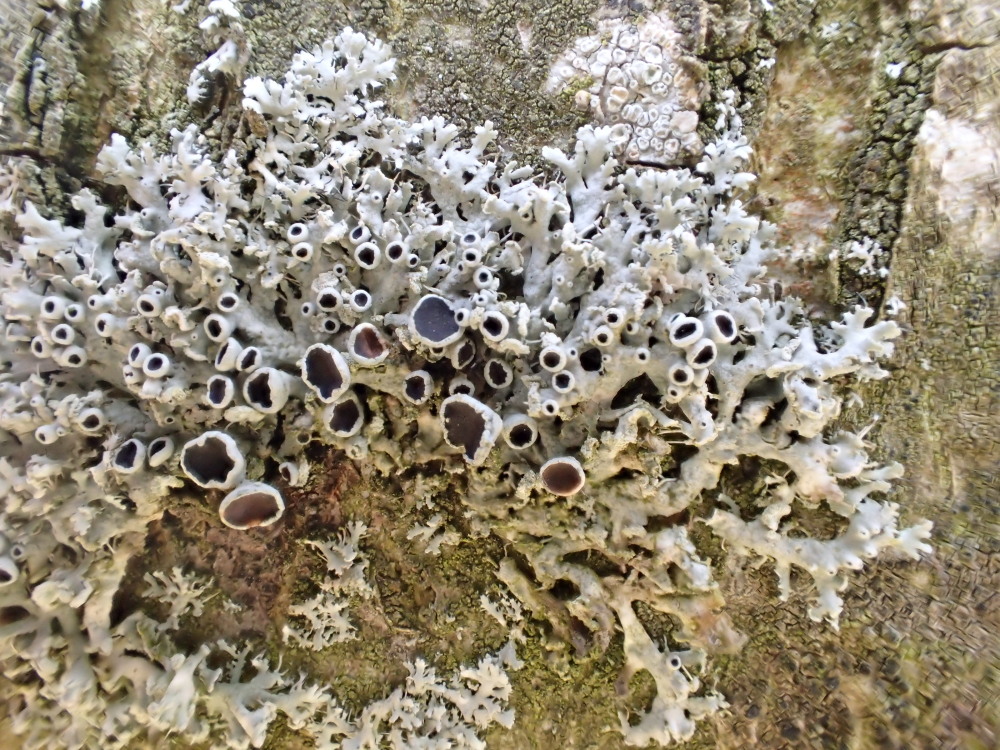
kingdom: Fungi
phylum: Ascomycota
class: Lecanoromycetes
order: Caliciales
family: Physciaceae
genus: Physcia
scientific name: Physcia tenella
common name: spæd rosetlav
